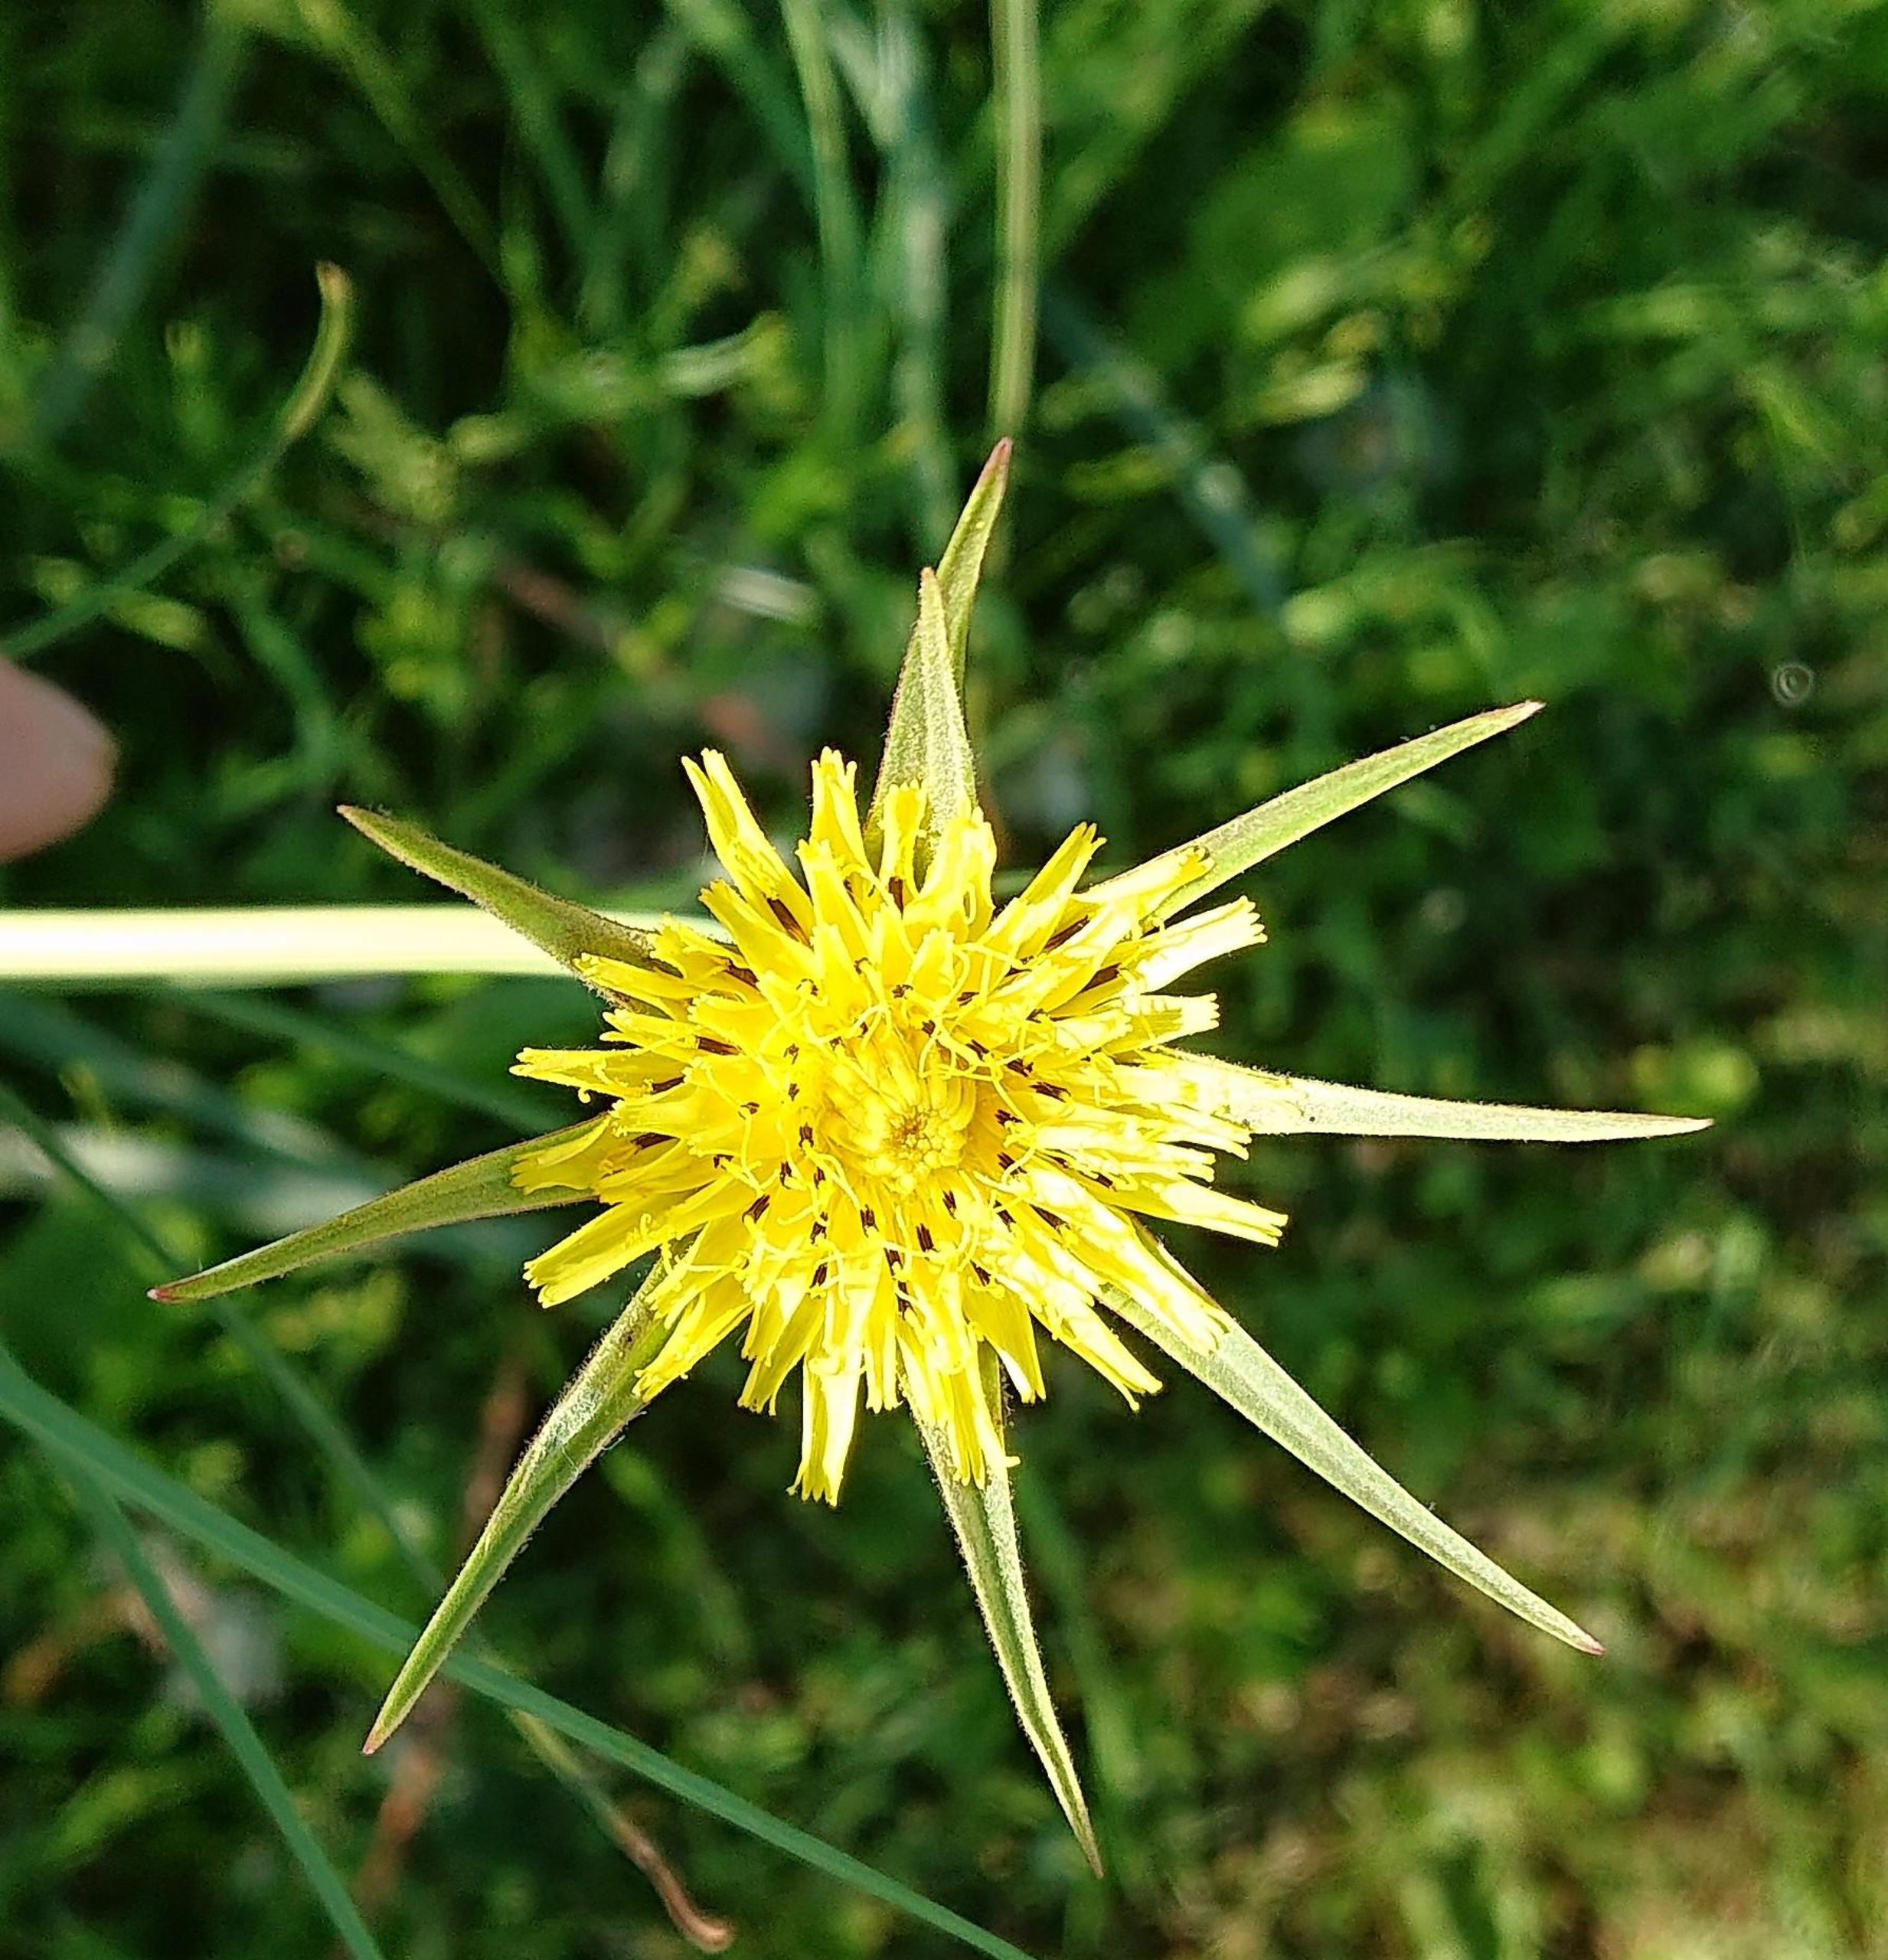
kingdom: Plantae
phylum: Tracheophyta
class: Magnoliopsida
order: Asterales
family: Asteraceae
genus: Tragopogon
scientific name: Tragopogon minor
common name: Småkronet gedeskæg
